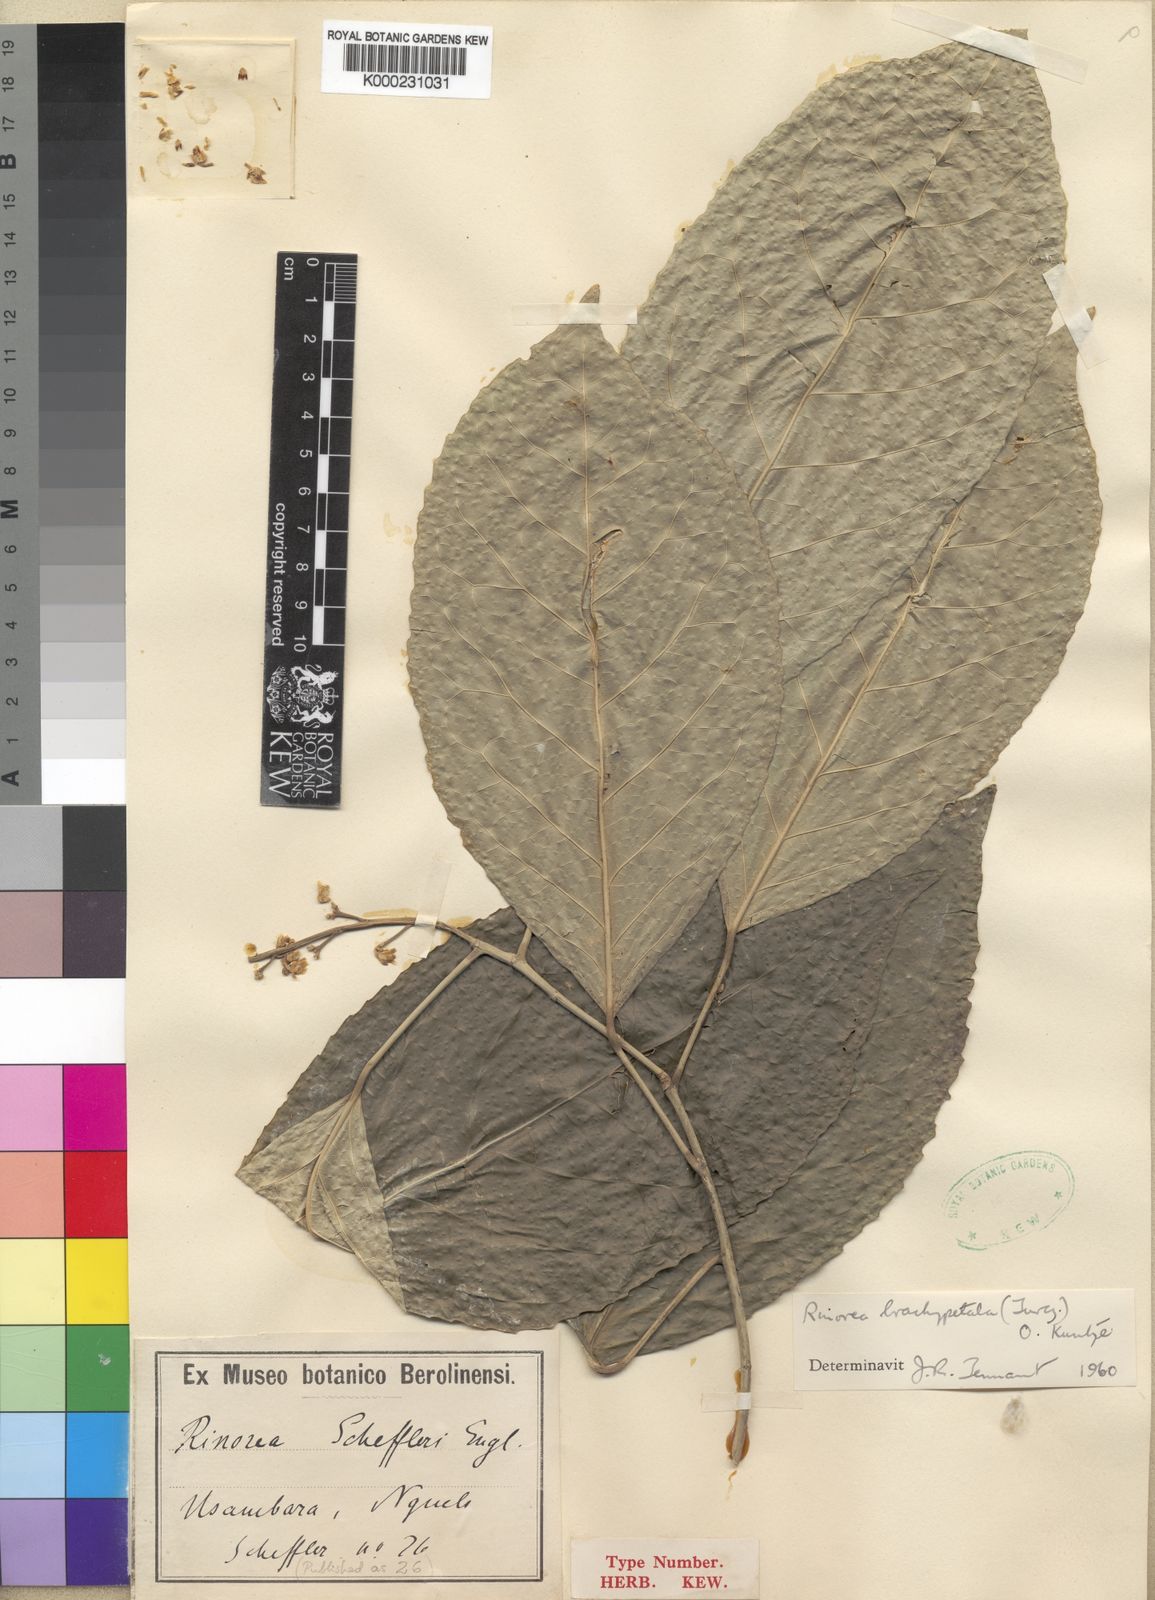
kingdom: Plantae
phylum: Tracheophyta
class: Magnoliopsida
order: Malpighiales
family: Violaceae
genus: Rinorea
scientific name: Rinorea scheffleri
